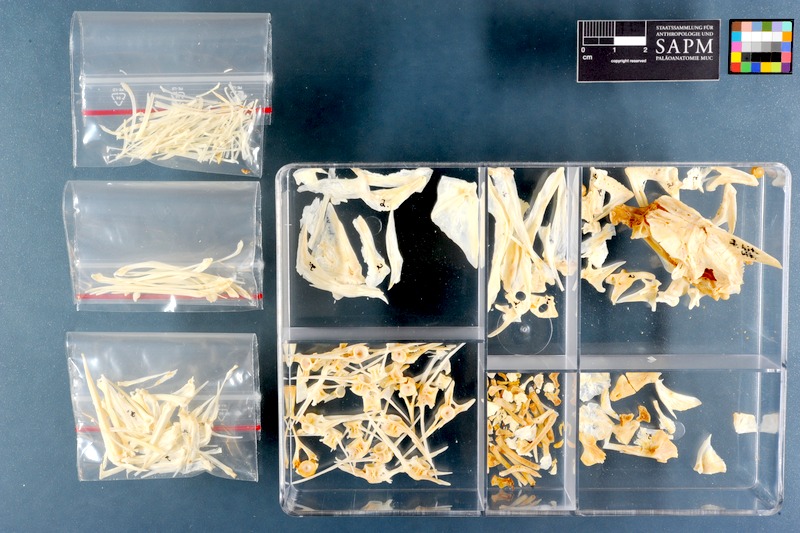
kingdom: Animalia
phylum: Chordata
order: Perciformes
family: Sparidae
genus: Lithognathus
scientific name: Lithognathus lithognathus
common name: White steenbras
